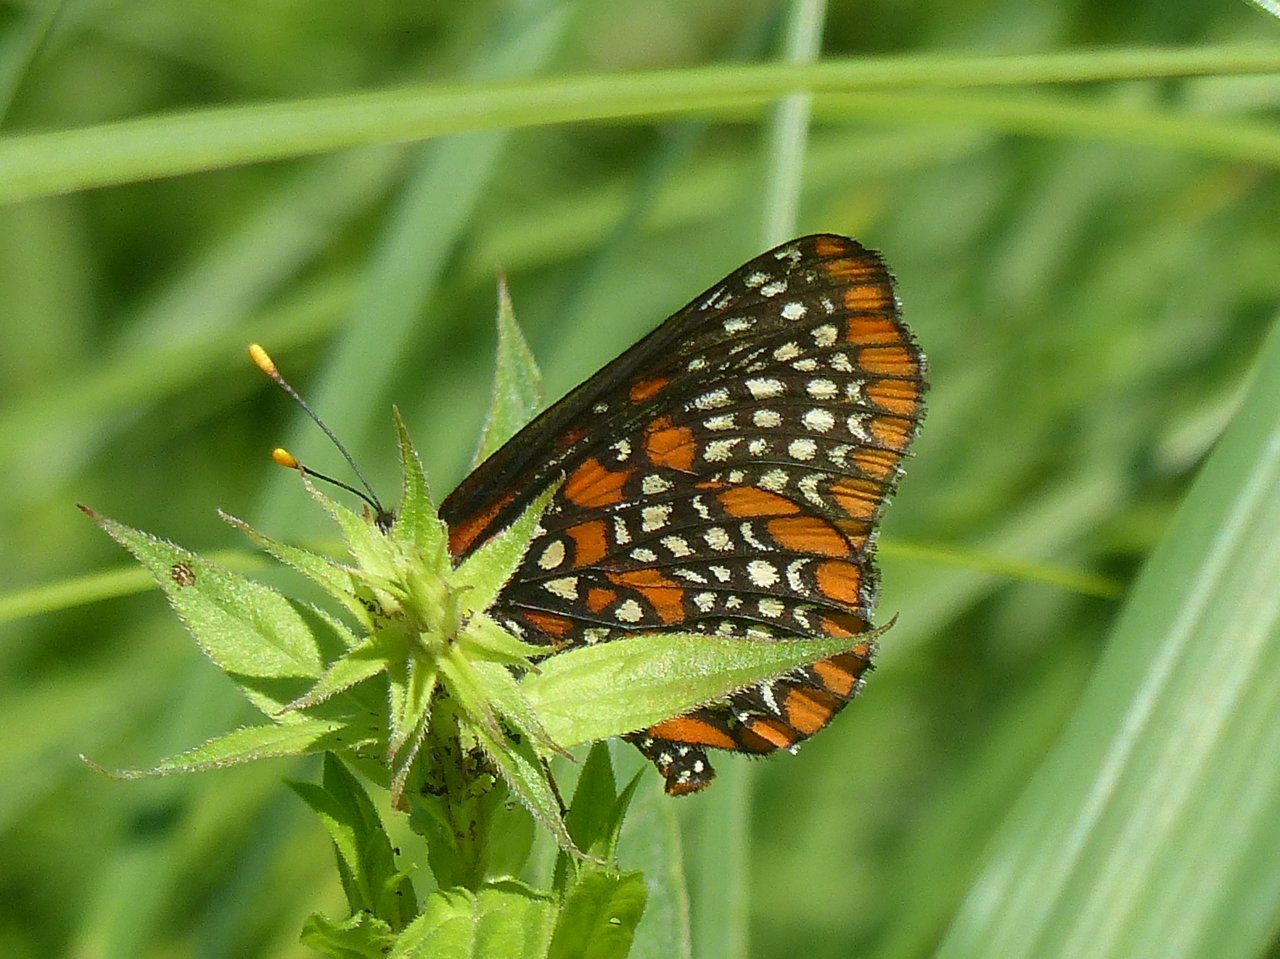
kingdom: Animalia
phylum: Arthropoda
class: Insecta
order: Lepidoptera
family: Nymphalidae
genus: Euphydryas
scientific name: Euphydryas phaeton
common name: Baltimore Checkerspot
